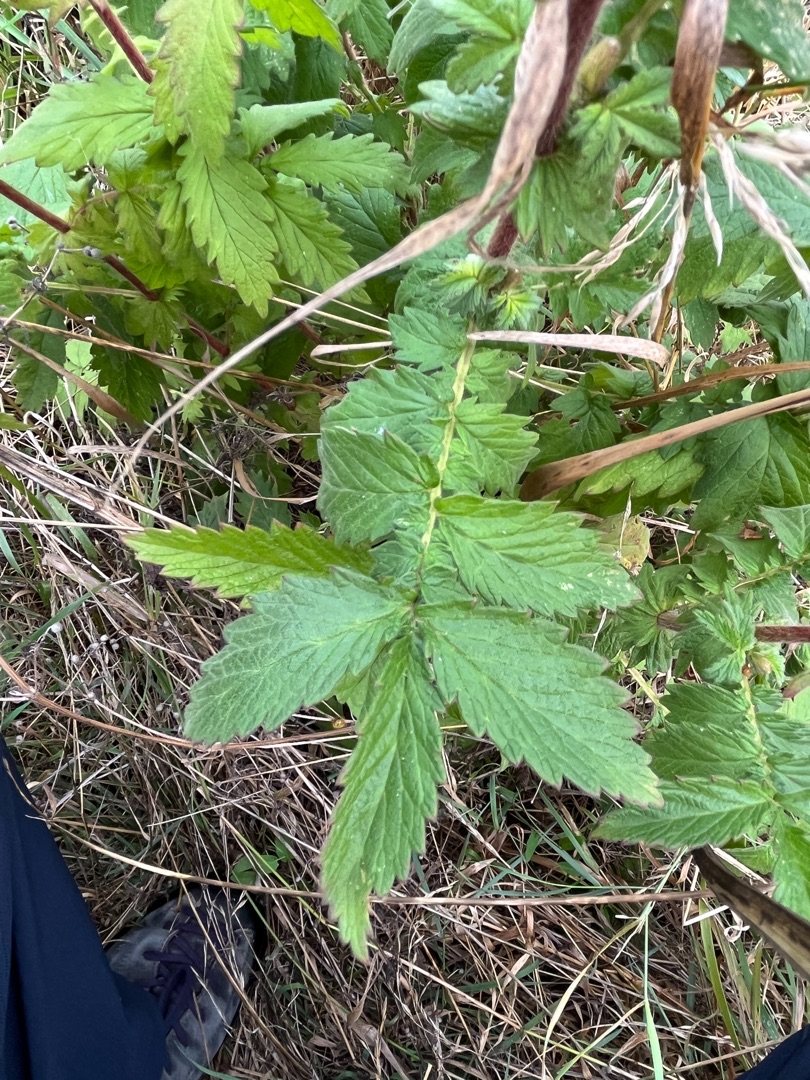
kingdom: Plantae
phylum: Tracheophyta
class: Magnoliopsida
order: Rosales
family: Rosaceae
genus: Agrimonia
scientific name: Agrimonia eupatoria
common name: Almindelig agermåne
